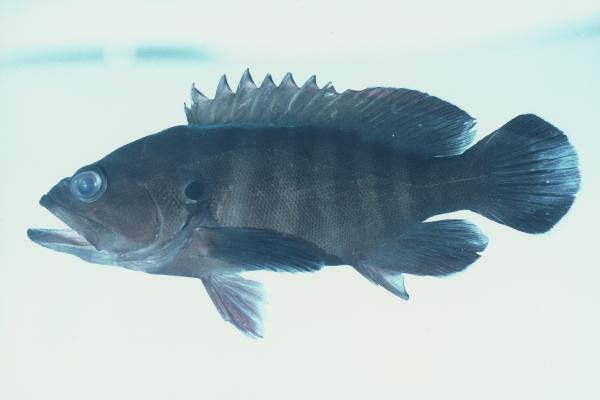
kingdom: Animalia
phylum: Chordata
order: Perciformes
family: Serranidae
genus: Cephalopholis
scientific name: Cephalopholis boenak
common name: Chocolate hind
